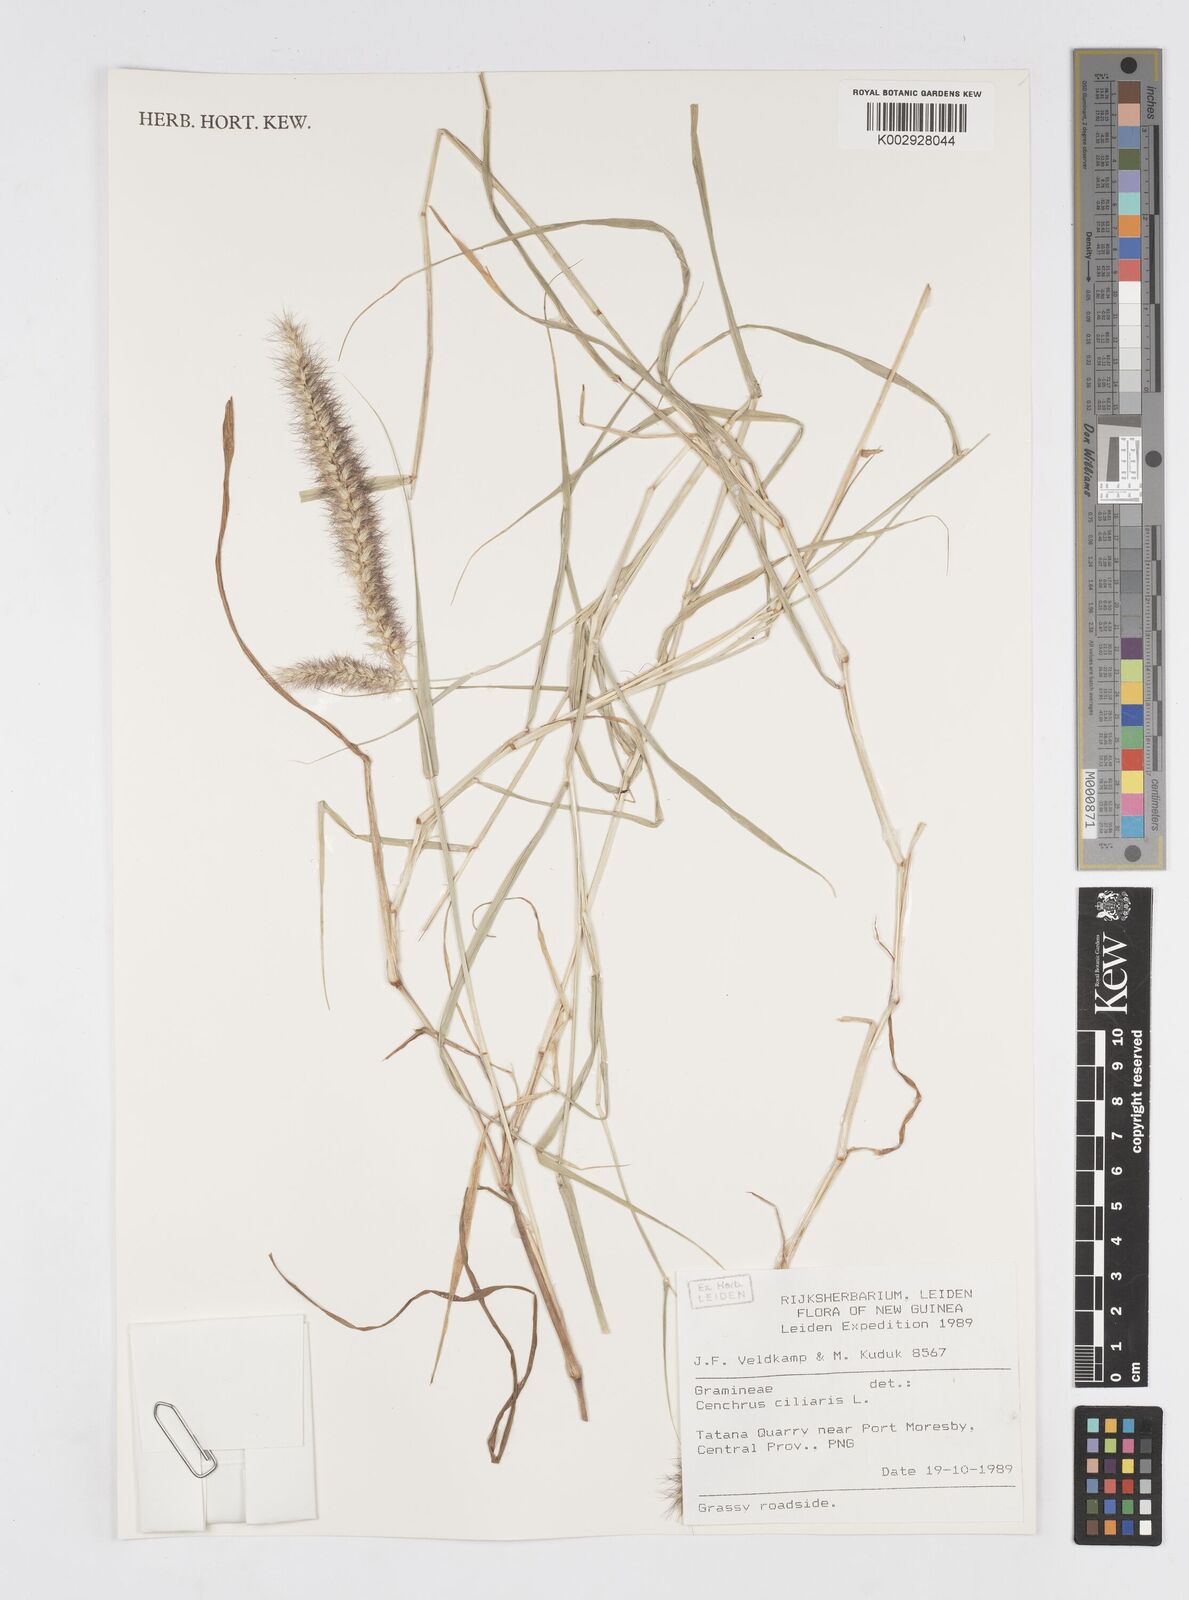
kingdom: Plantae
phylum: Tracheophyta
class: Liliopsida
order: Poales
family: Poaceae
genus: Cenchrus
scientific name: Cenchrus ciliaris
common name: Buffelgrass
